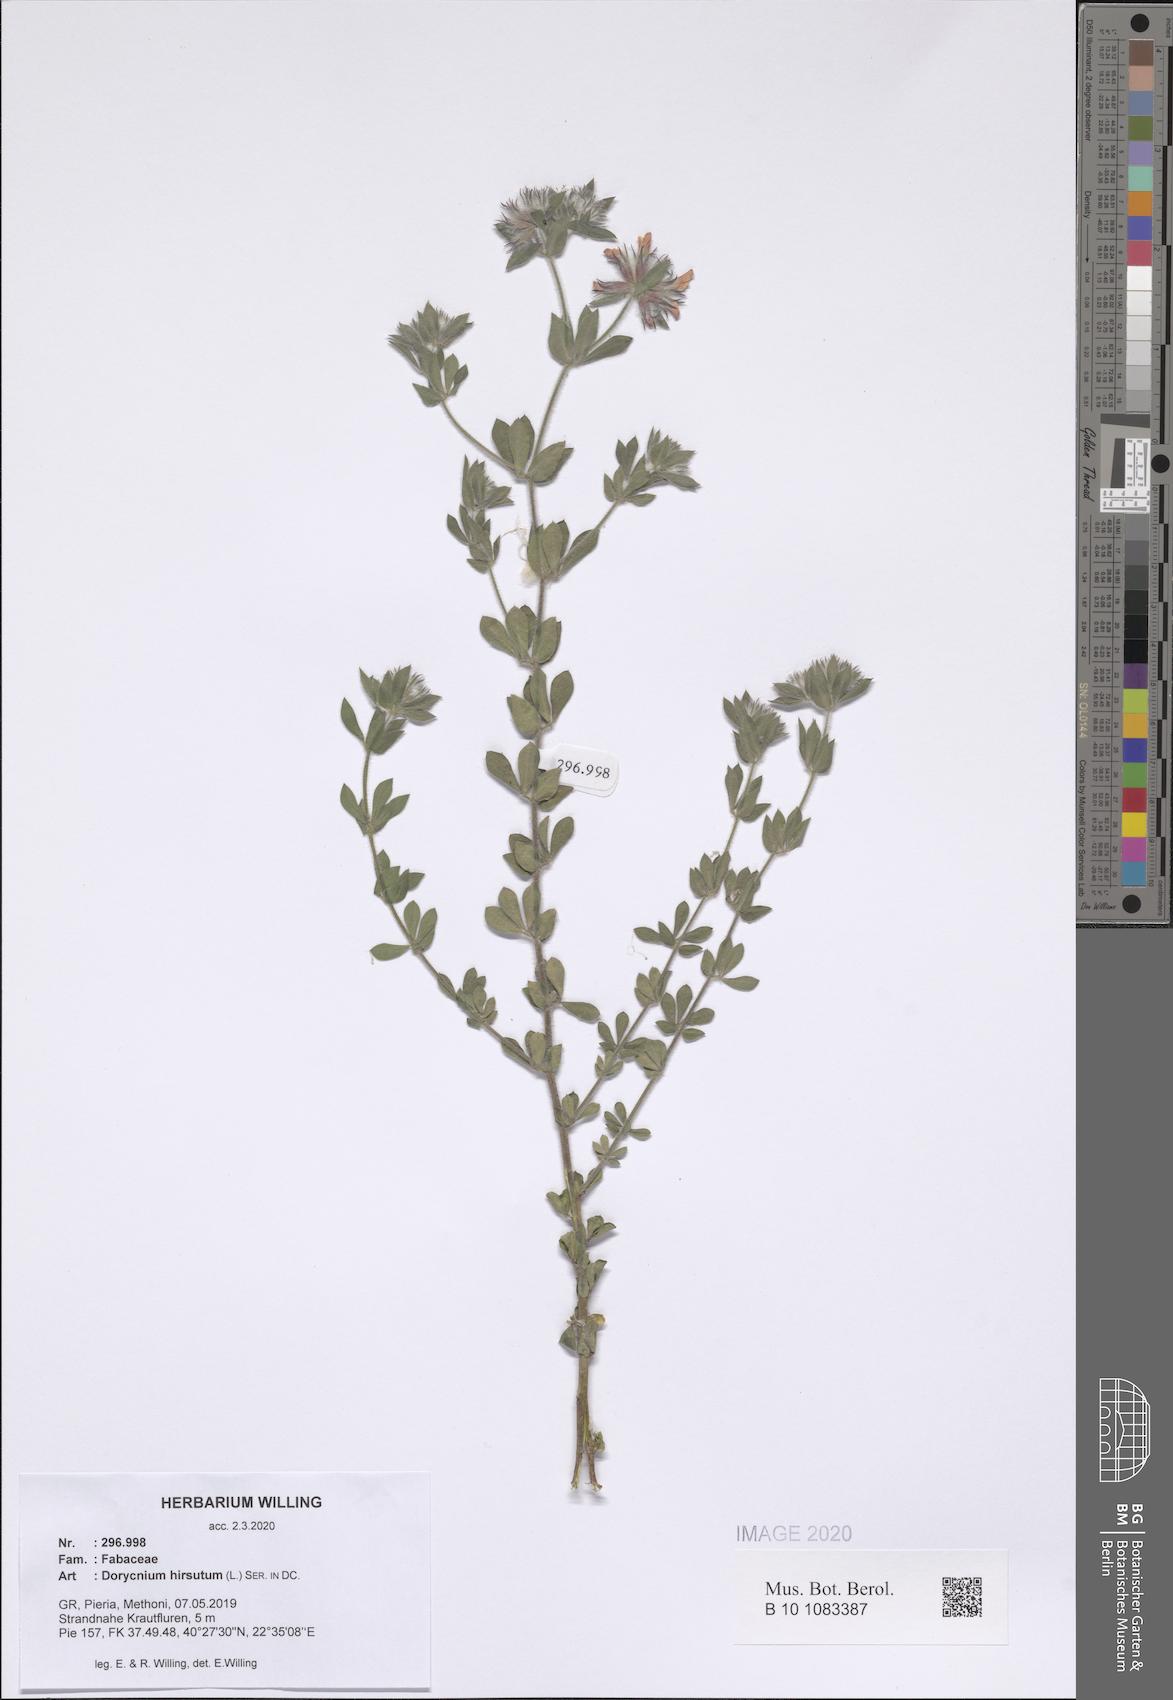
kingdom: Plantae
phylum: Tracheophyta
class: Magnoliopsida
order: Fabales
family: Fabaceae
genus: Lotus
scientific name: Lotus hirsutus
